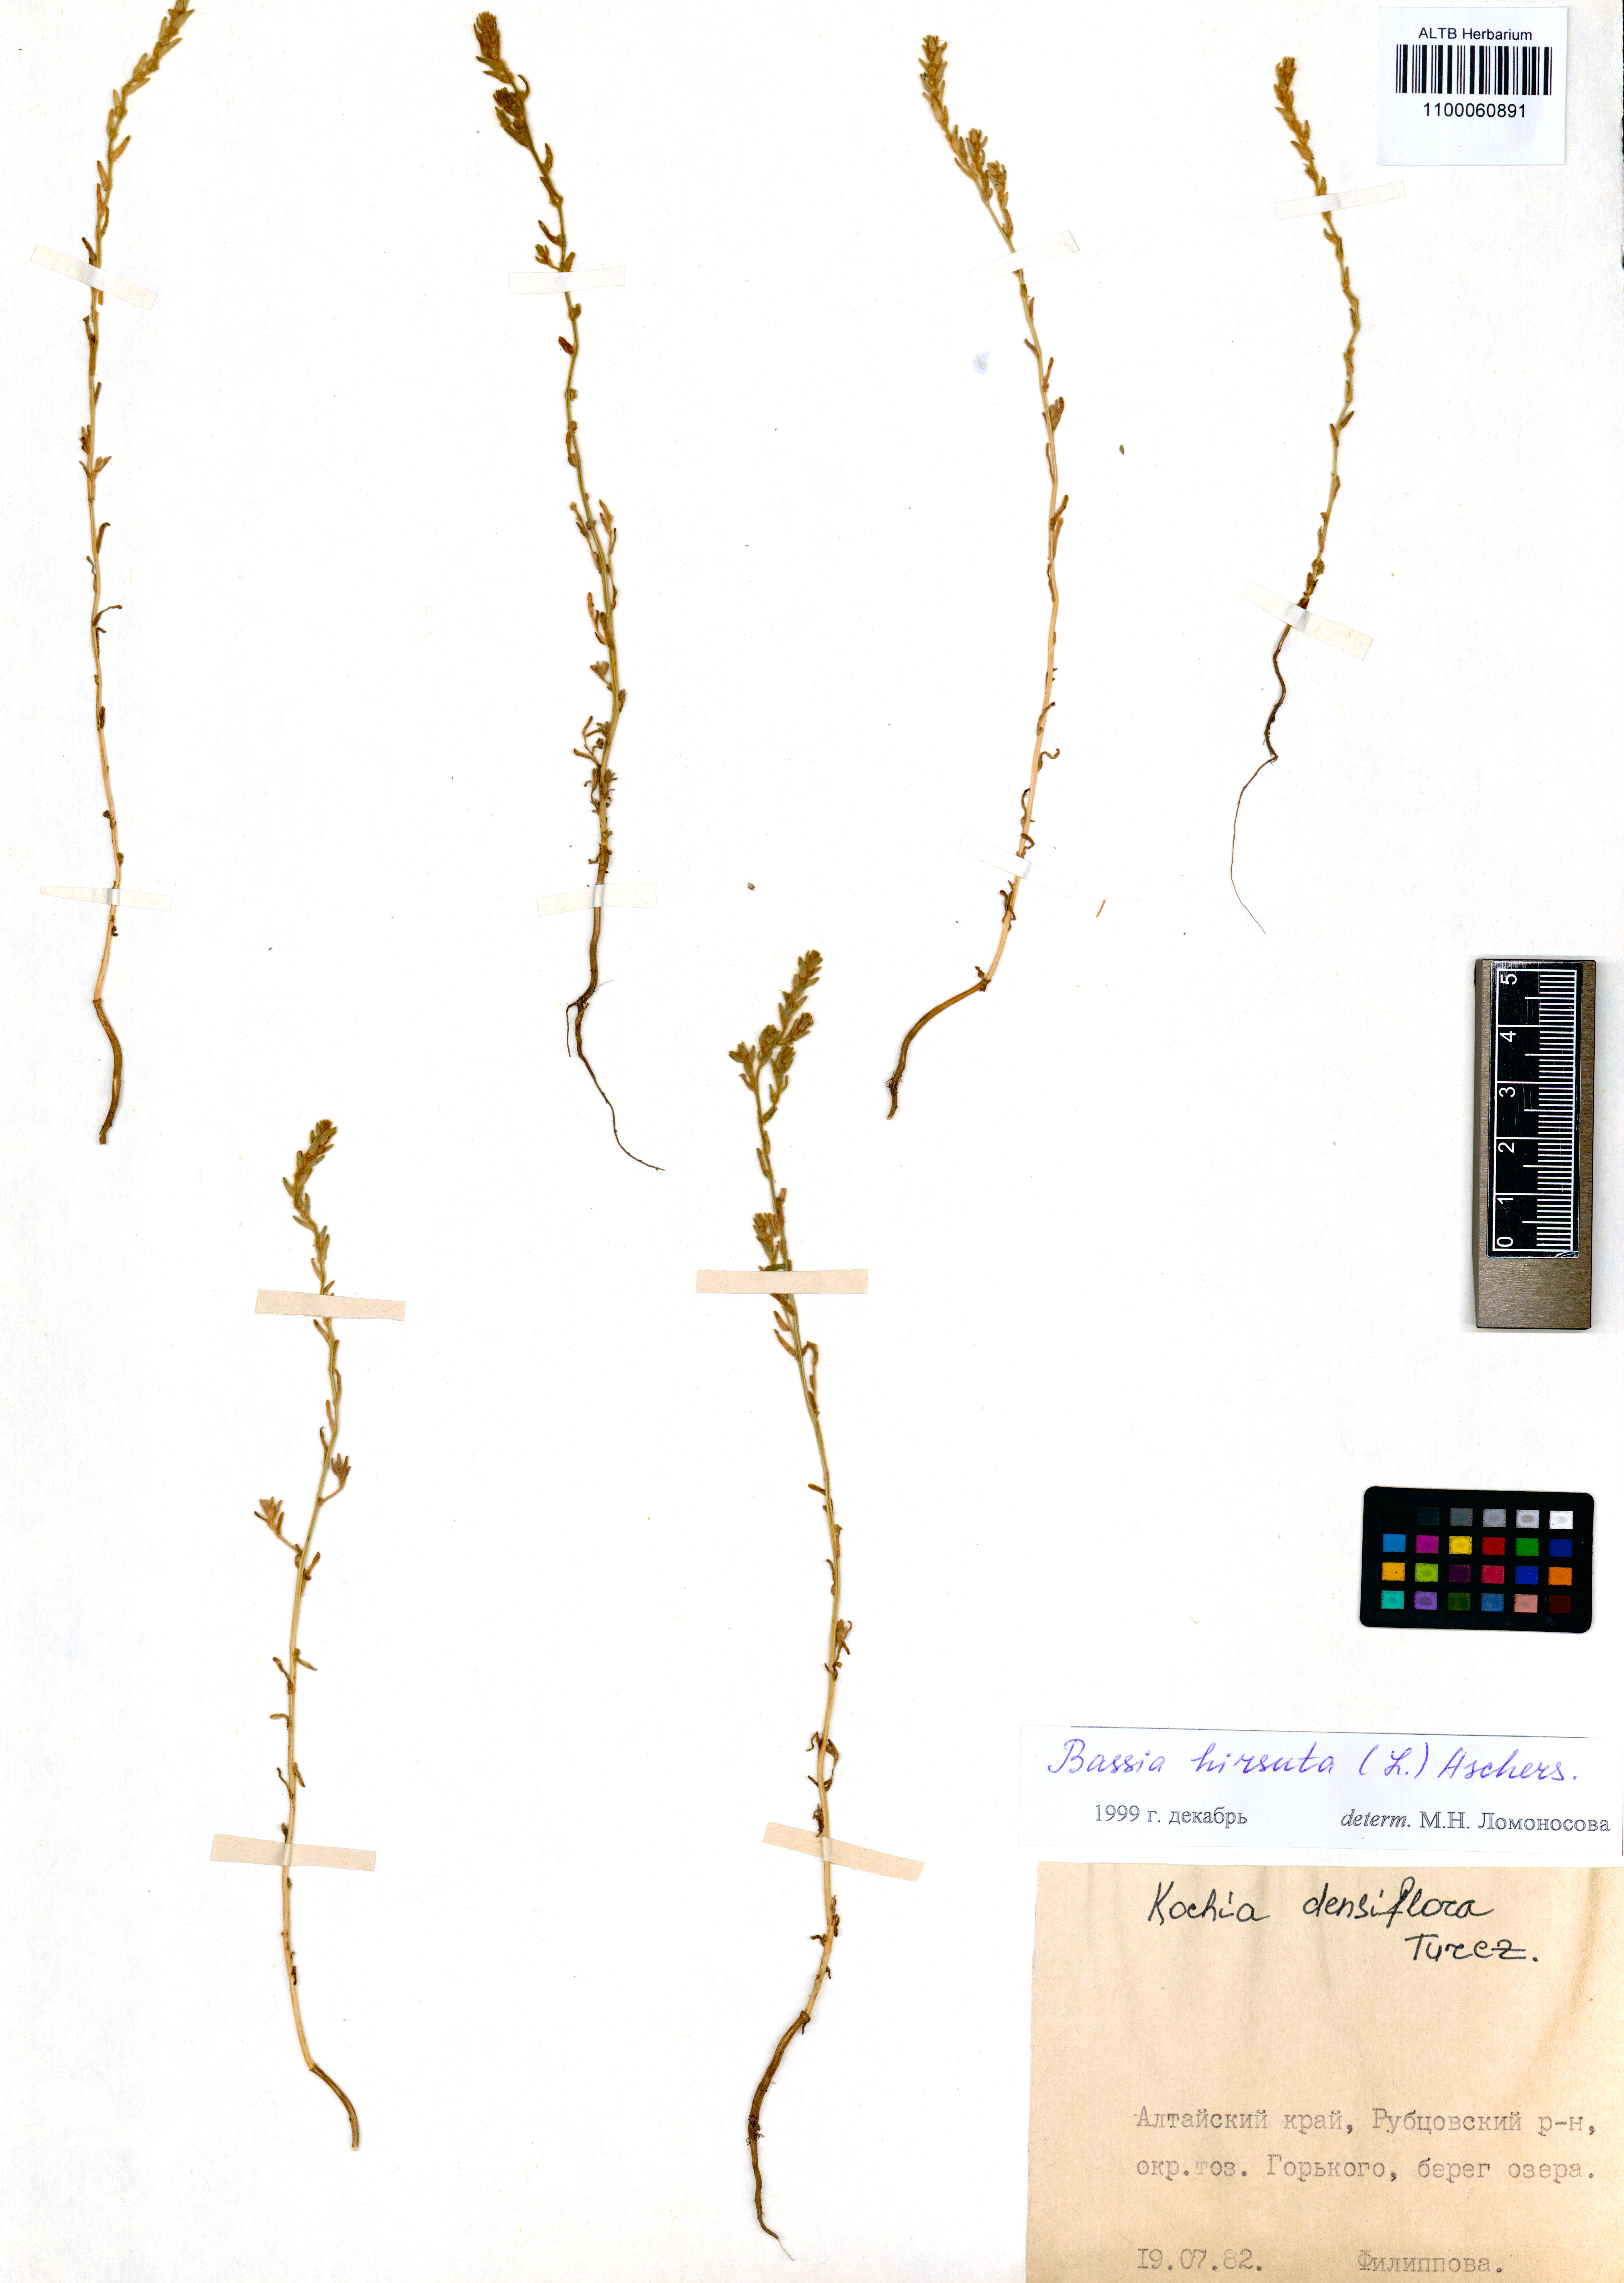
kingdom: Plantae
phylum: Tracheophyta
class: Magnoliopsida
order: Caryophyllales
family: Amaranthaceae
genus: Spirobassia
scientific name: Spirobassia hirsuta
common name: Hairy smotherweed
